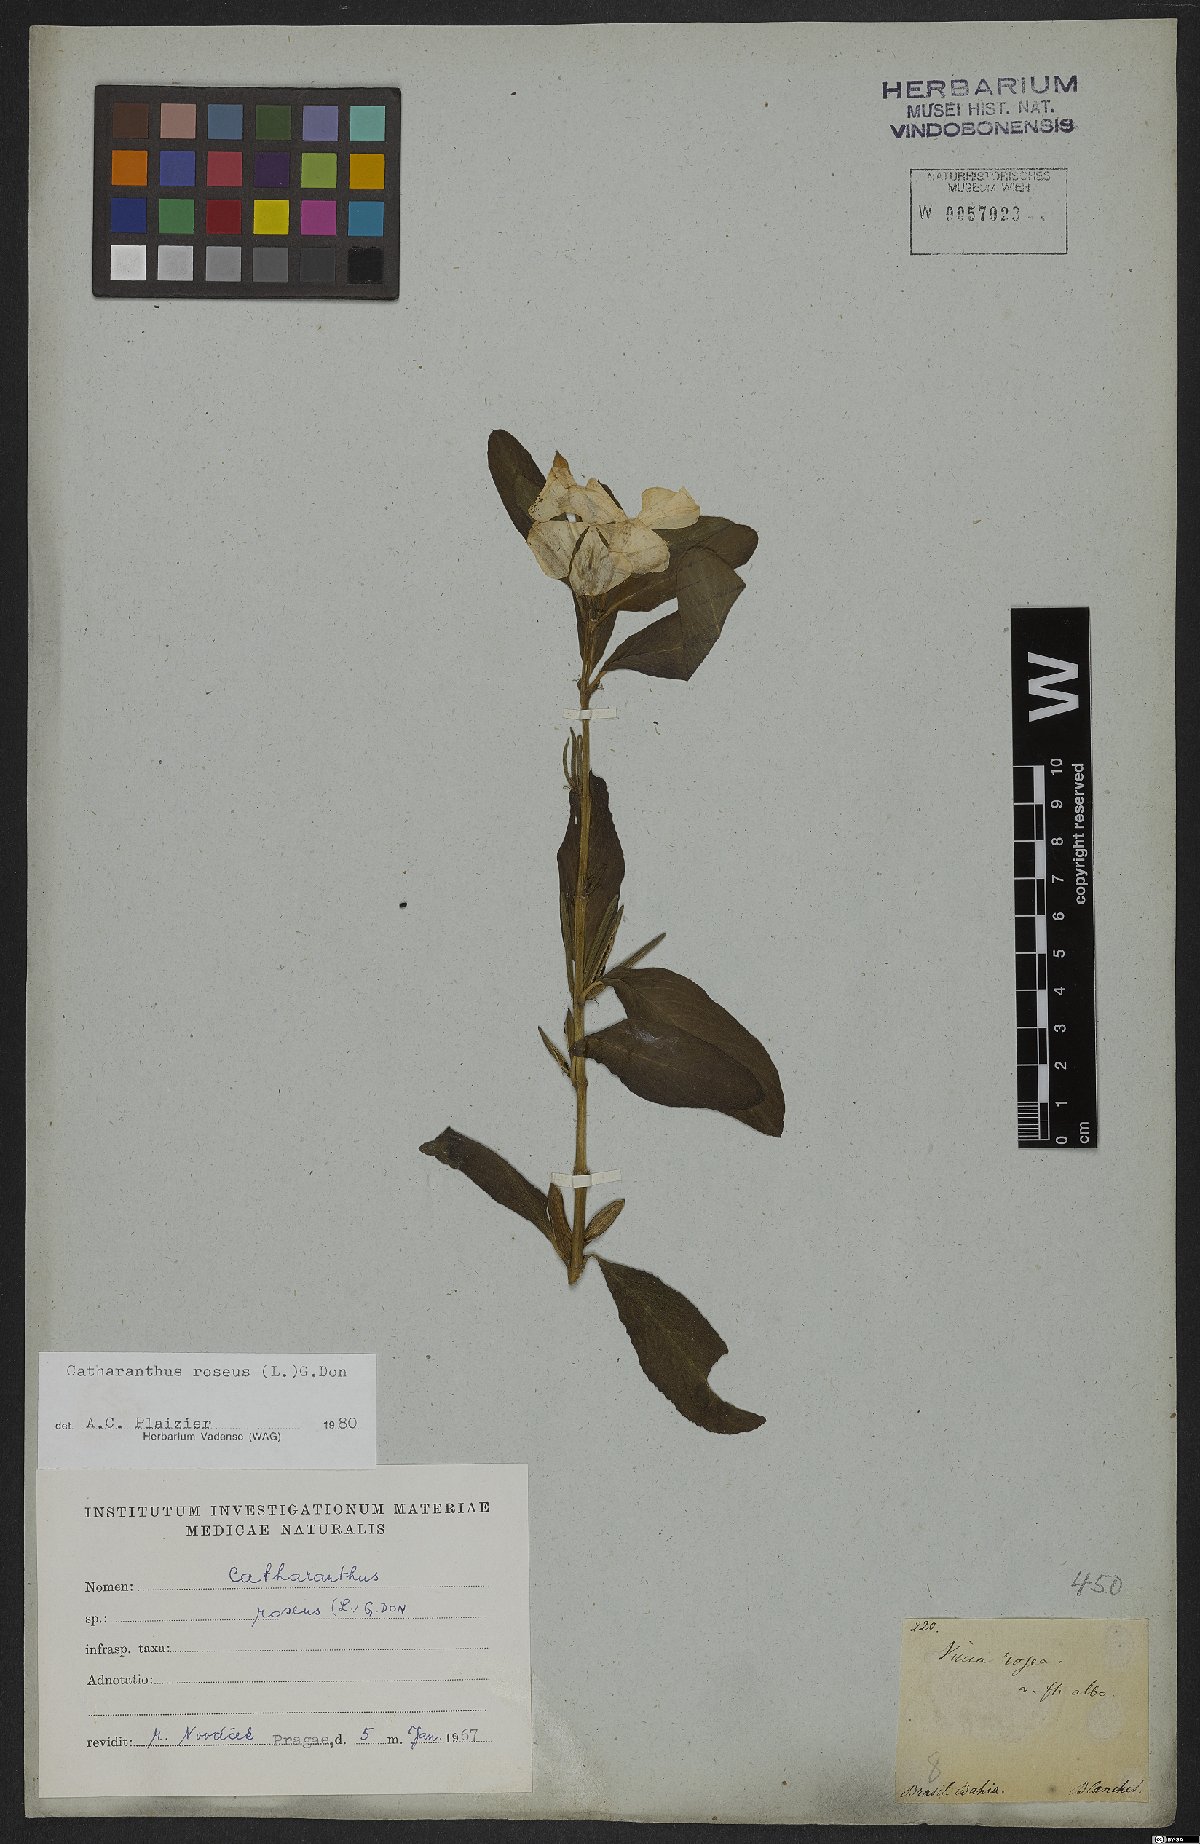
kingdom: Plantae
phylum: Tracheophyta
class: Magnoliopsida
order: Gentianales
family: Apocynaceae
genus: Catharanthus
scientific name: Catharanthus roseus
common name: Madagascar periwinkle
